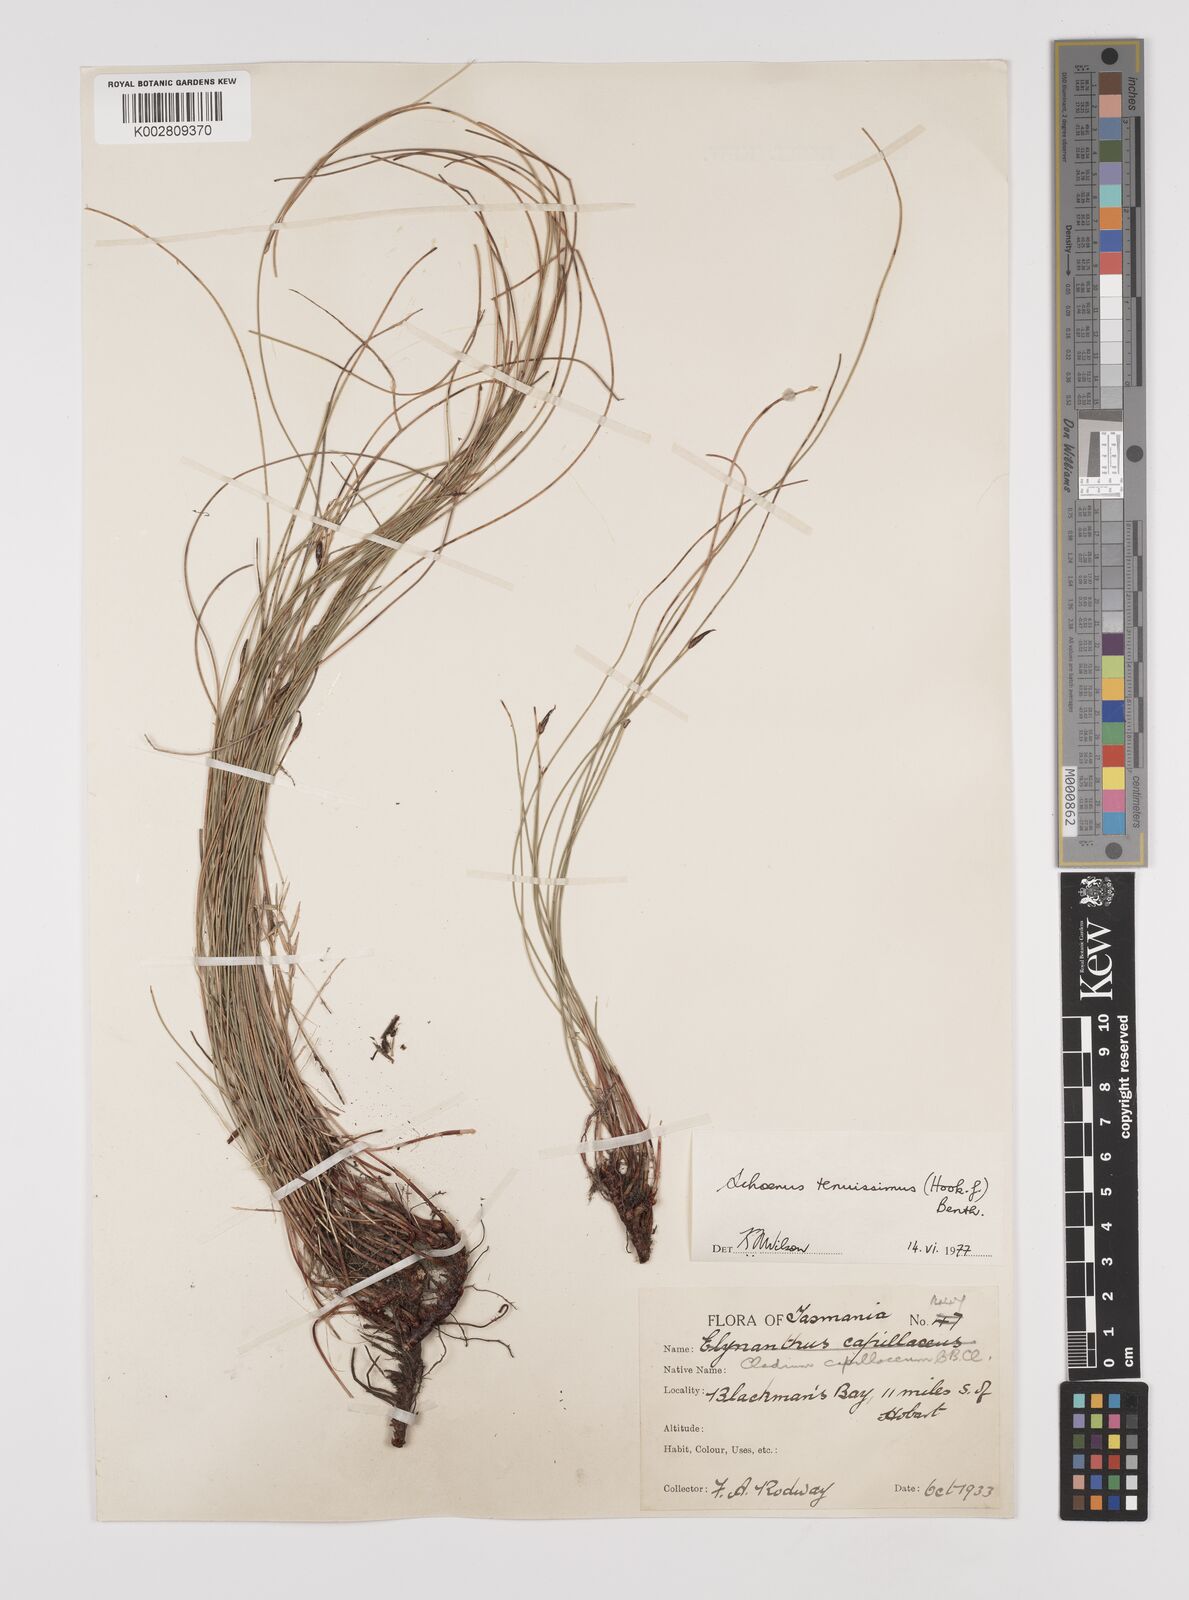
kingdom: Plantae
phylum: Tracheophyta
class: Liliopsida
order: Poales
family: Cyperaceae
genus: Schoenus
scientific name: Schoenus tenuissimus
